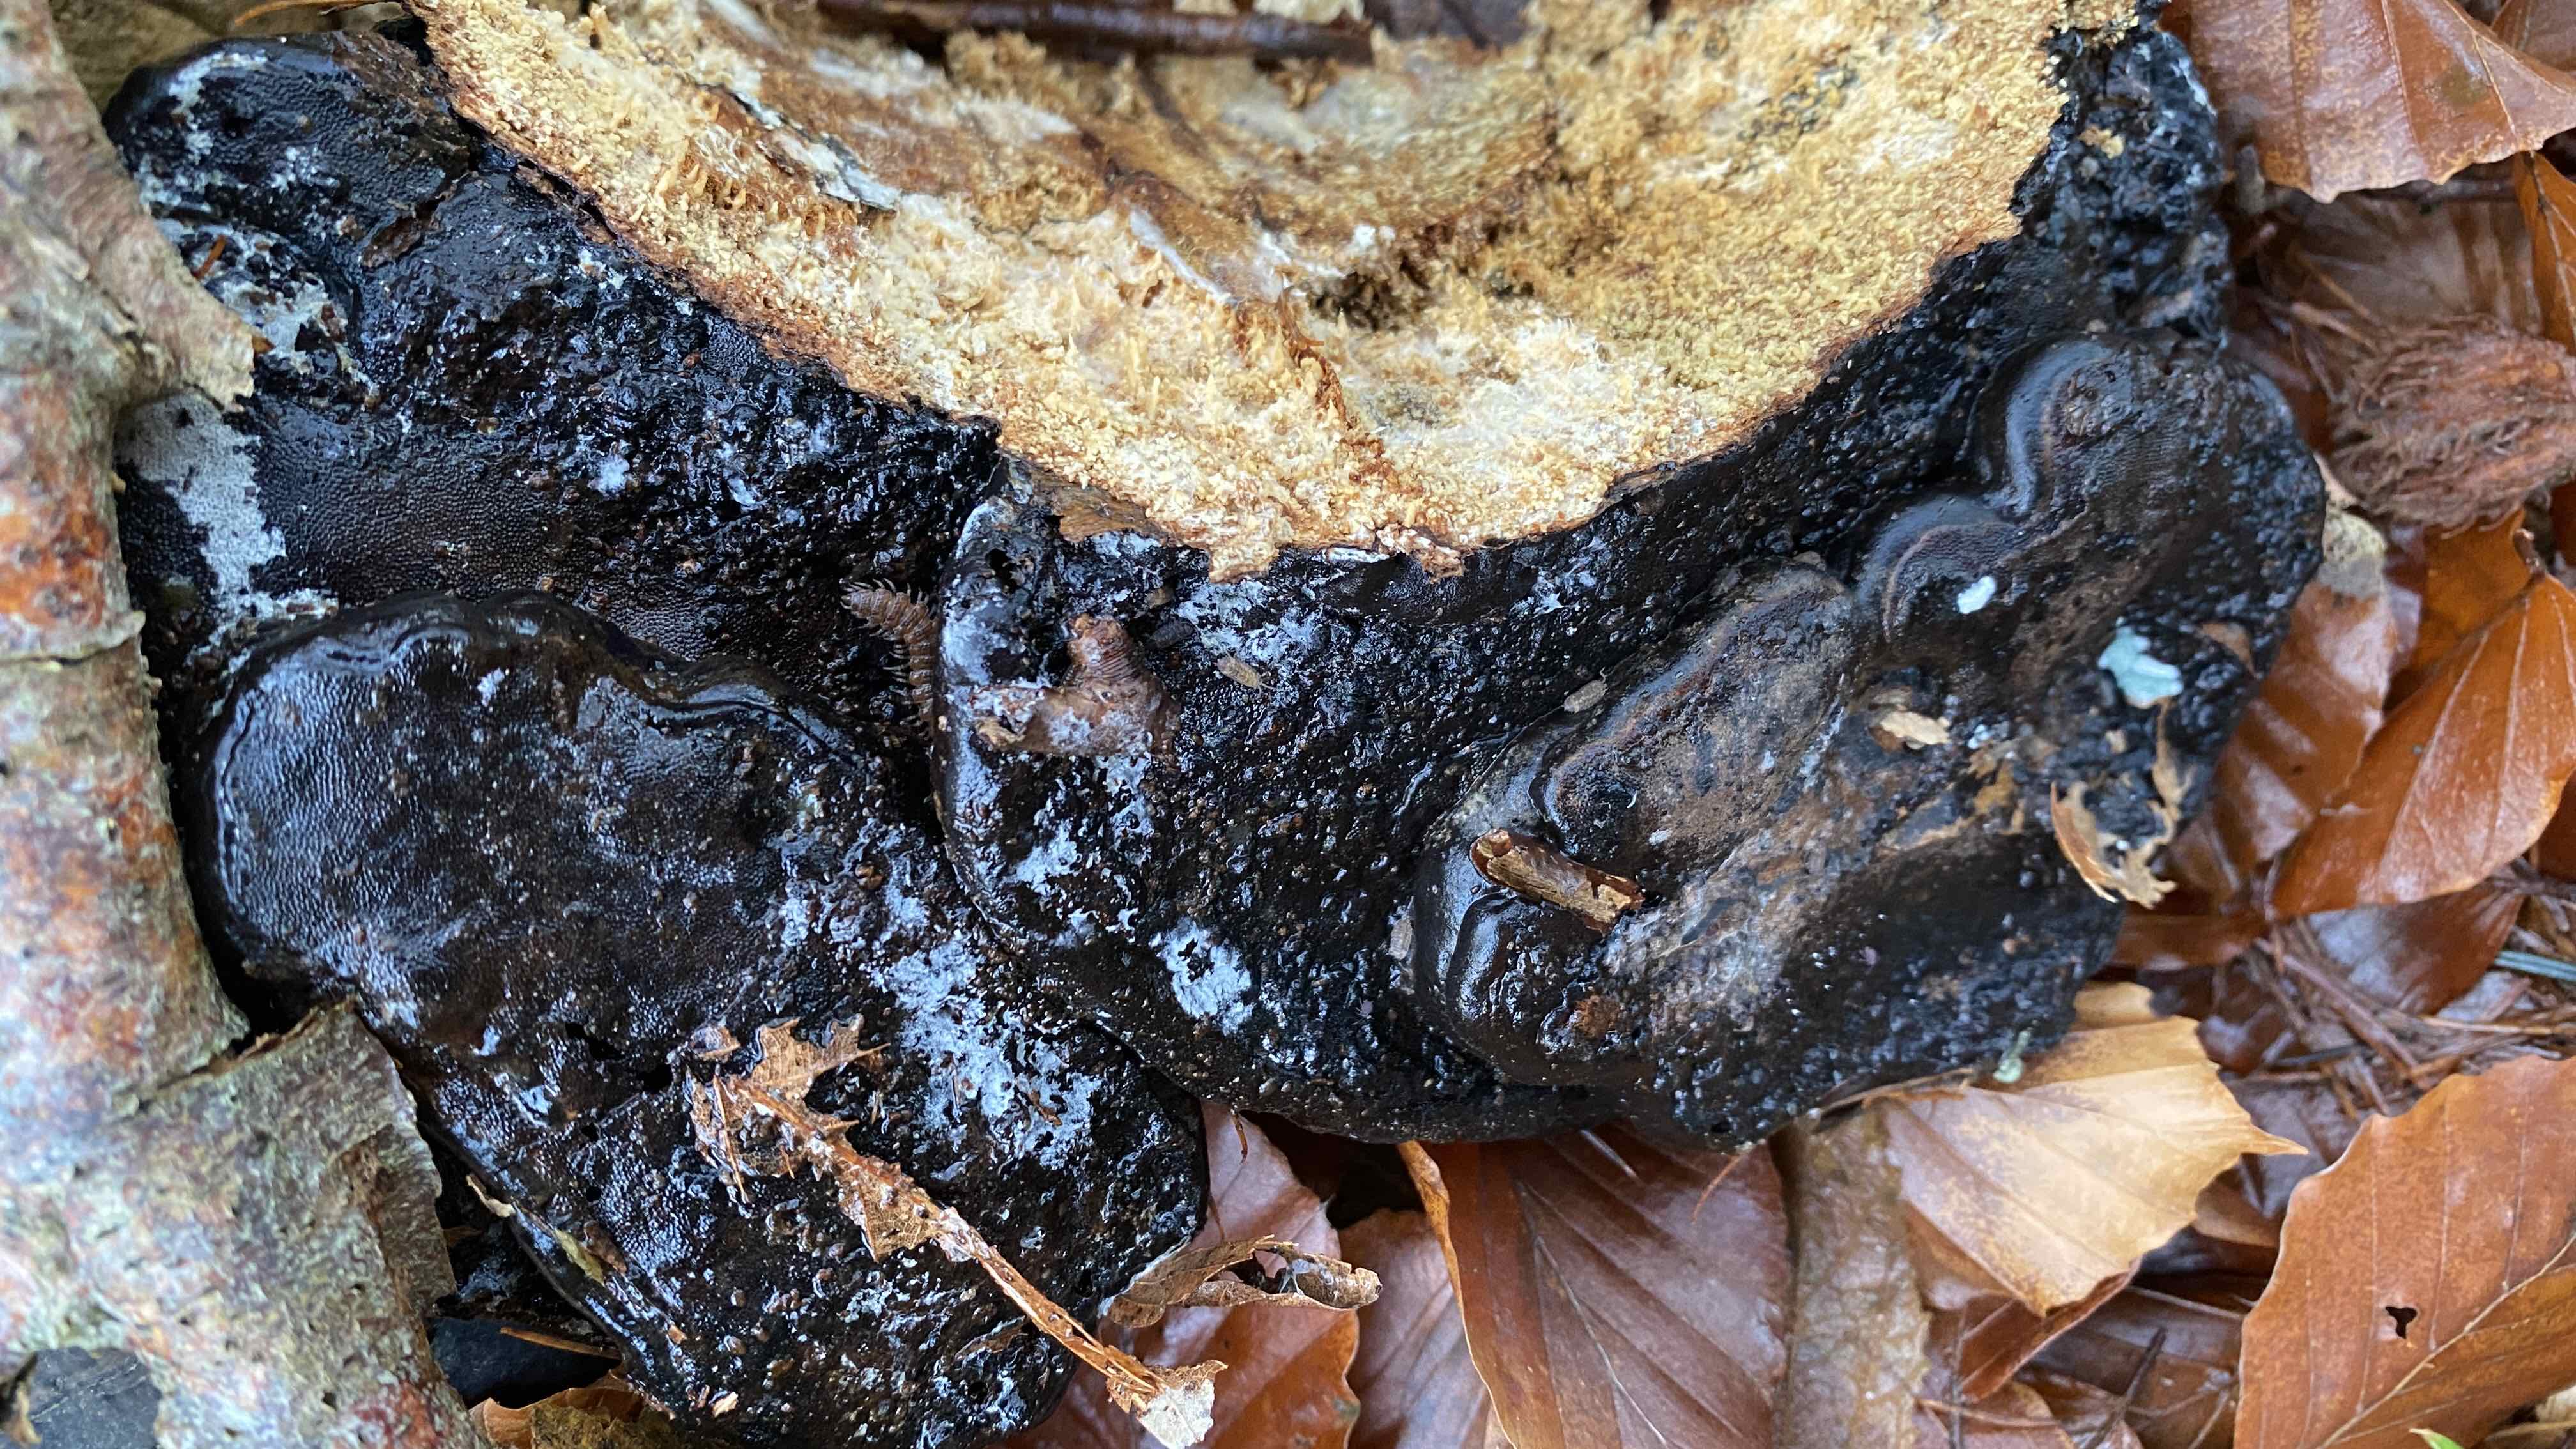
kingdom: Fungi
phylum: Basidiomycota
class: Agaricomycetes
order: Polyporales
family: Polyporaceae
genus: Fomes
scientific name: Fomes fomentarius
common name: tøndersvamp
